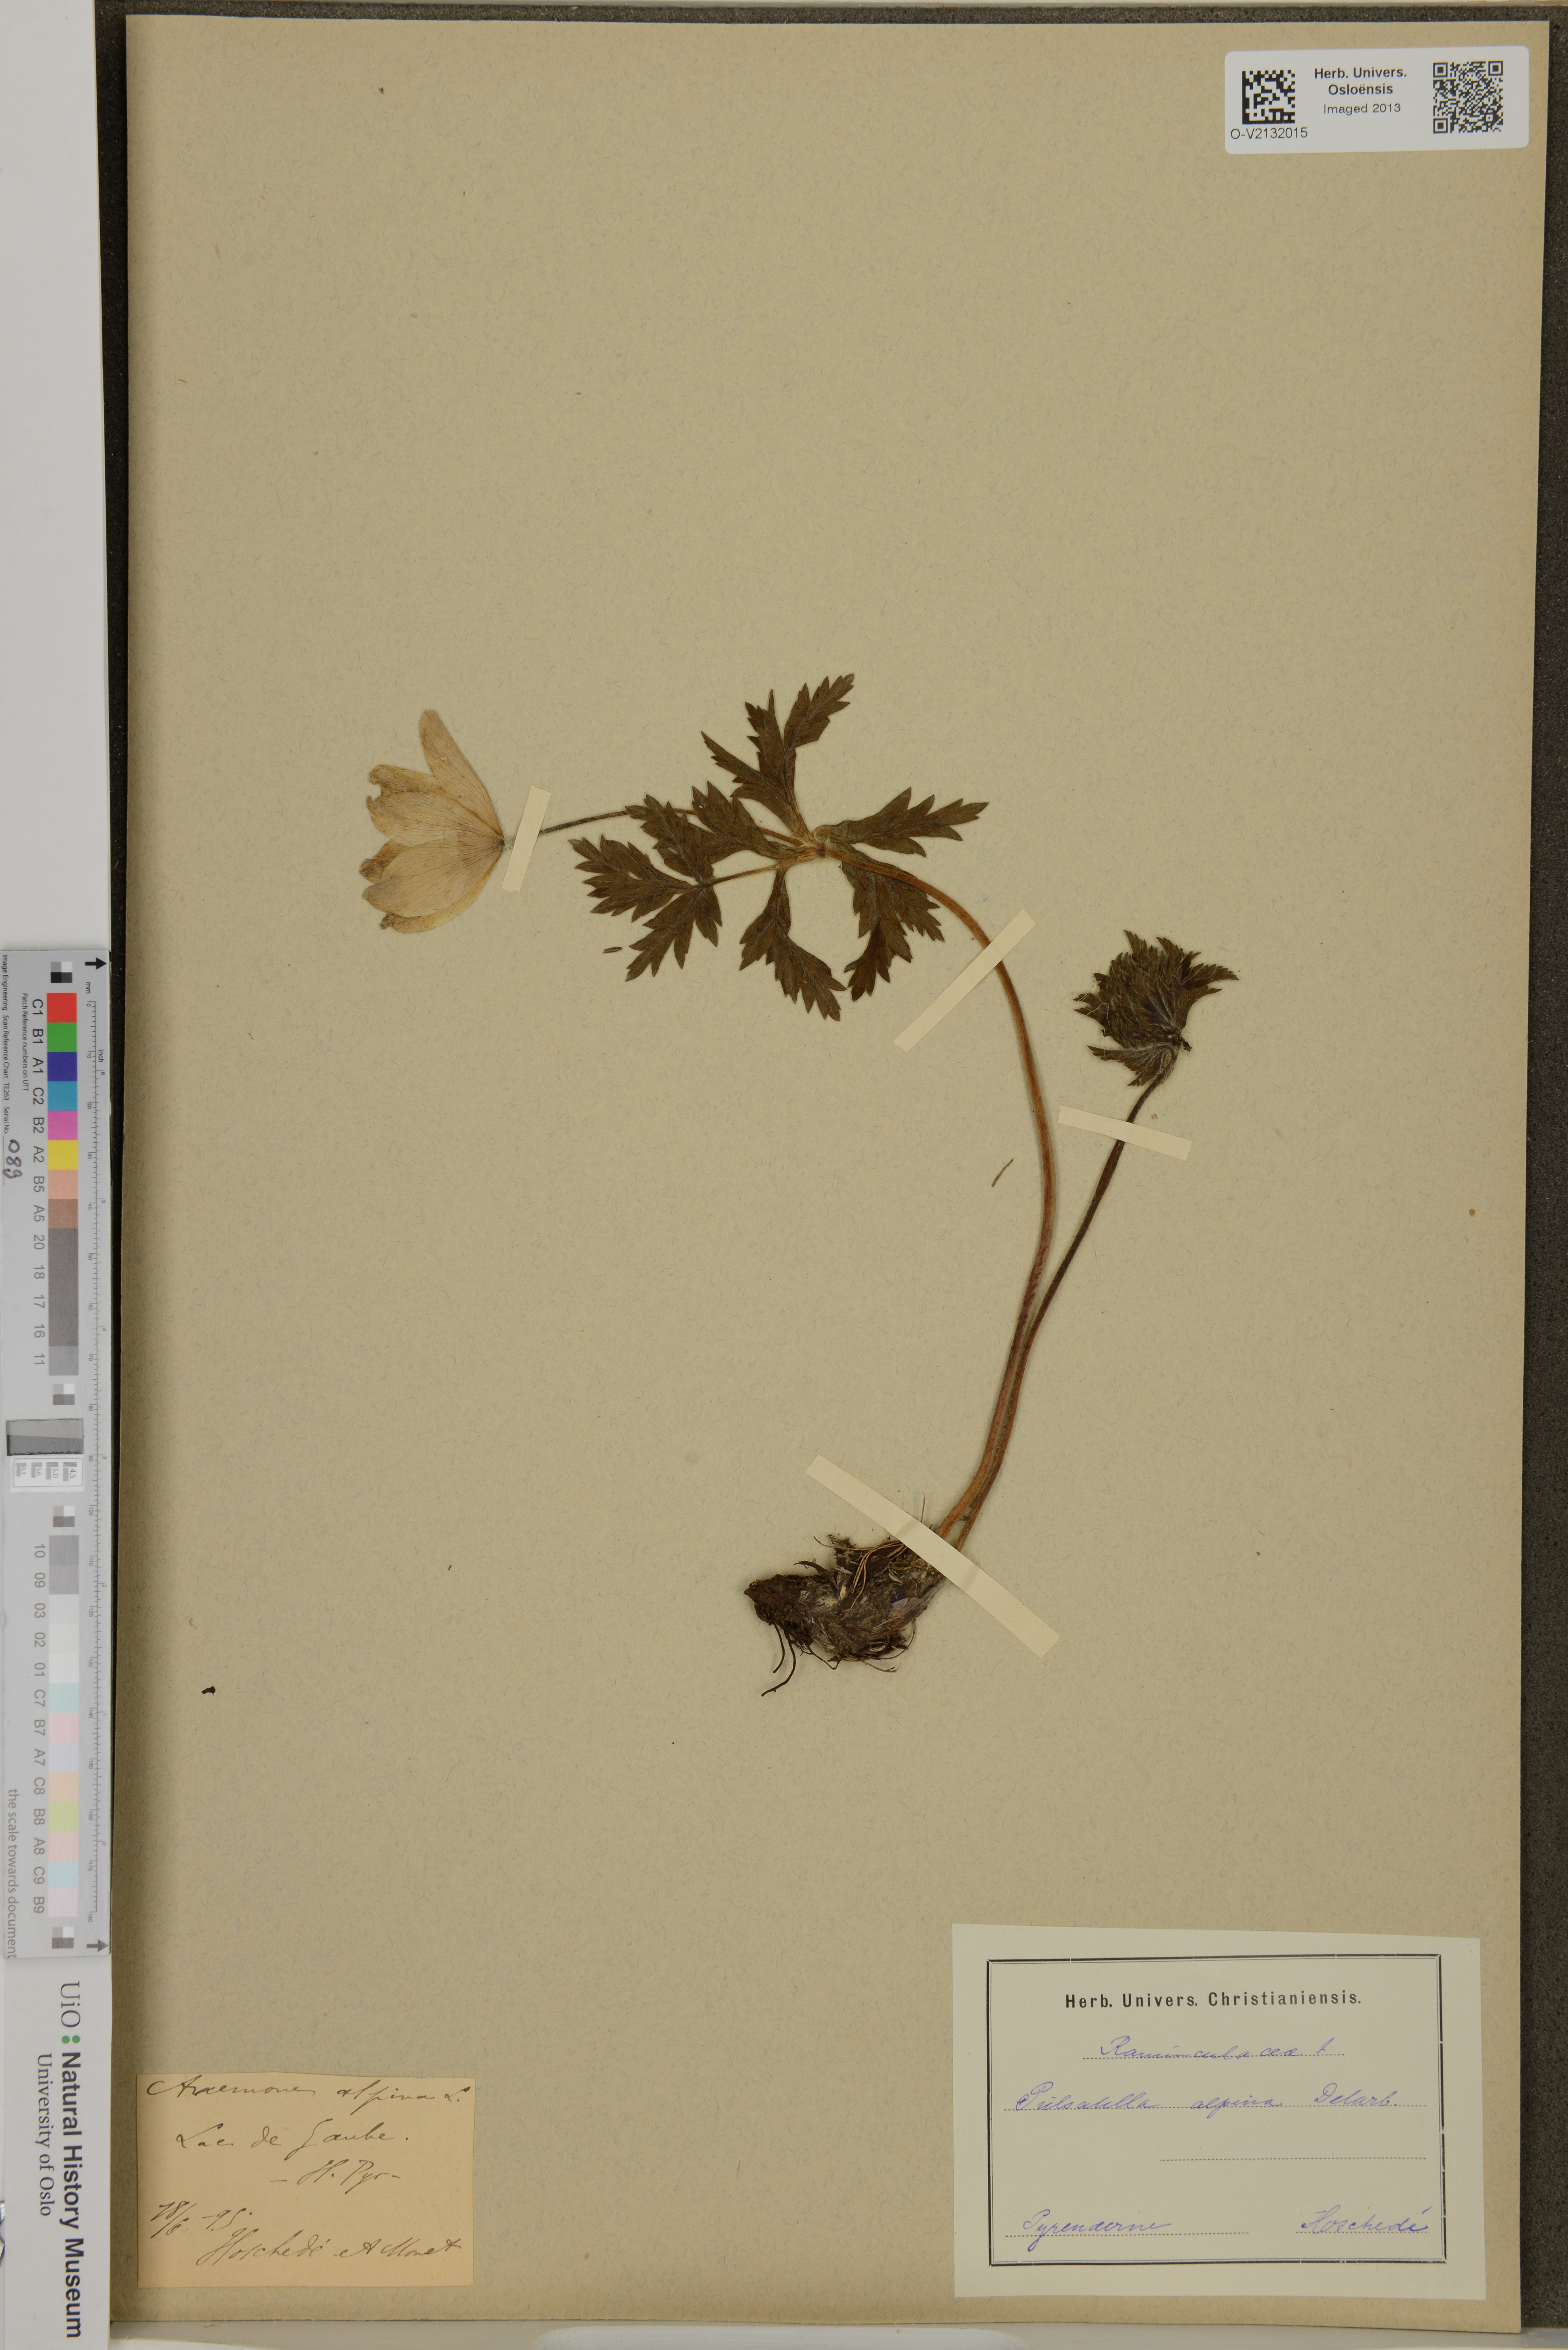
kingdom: Plantae
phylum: Tracheophyta
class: Magnoliopsida
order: Ranunculales
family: Ranunculaceae
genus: Pulsatilla
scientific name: Pulsatilla alpina
